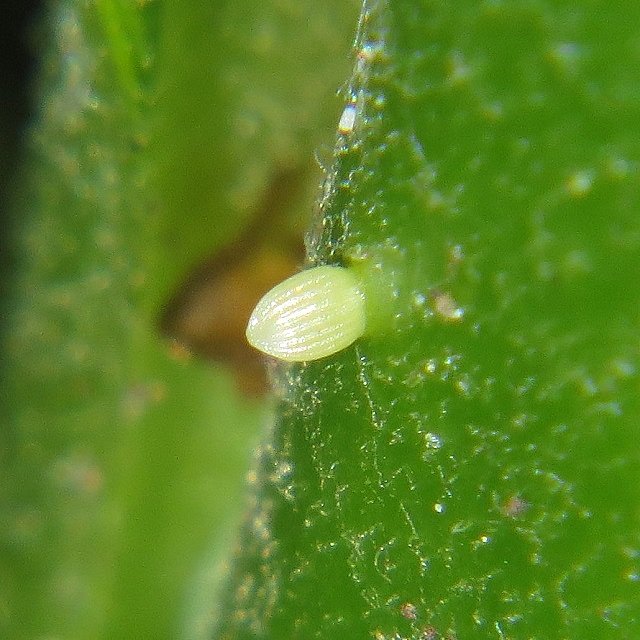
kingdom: Animalia
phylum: Arthropoda
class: Insecta
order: Lepidoptera
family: Nymphalidae
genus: Danaus
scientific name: Danaus plexippus
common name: Monarch
